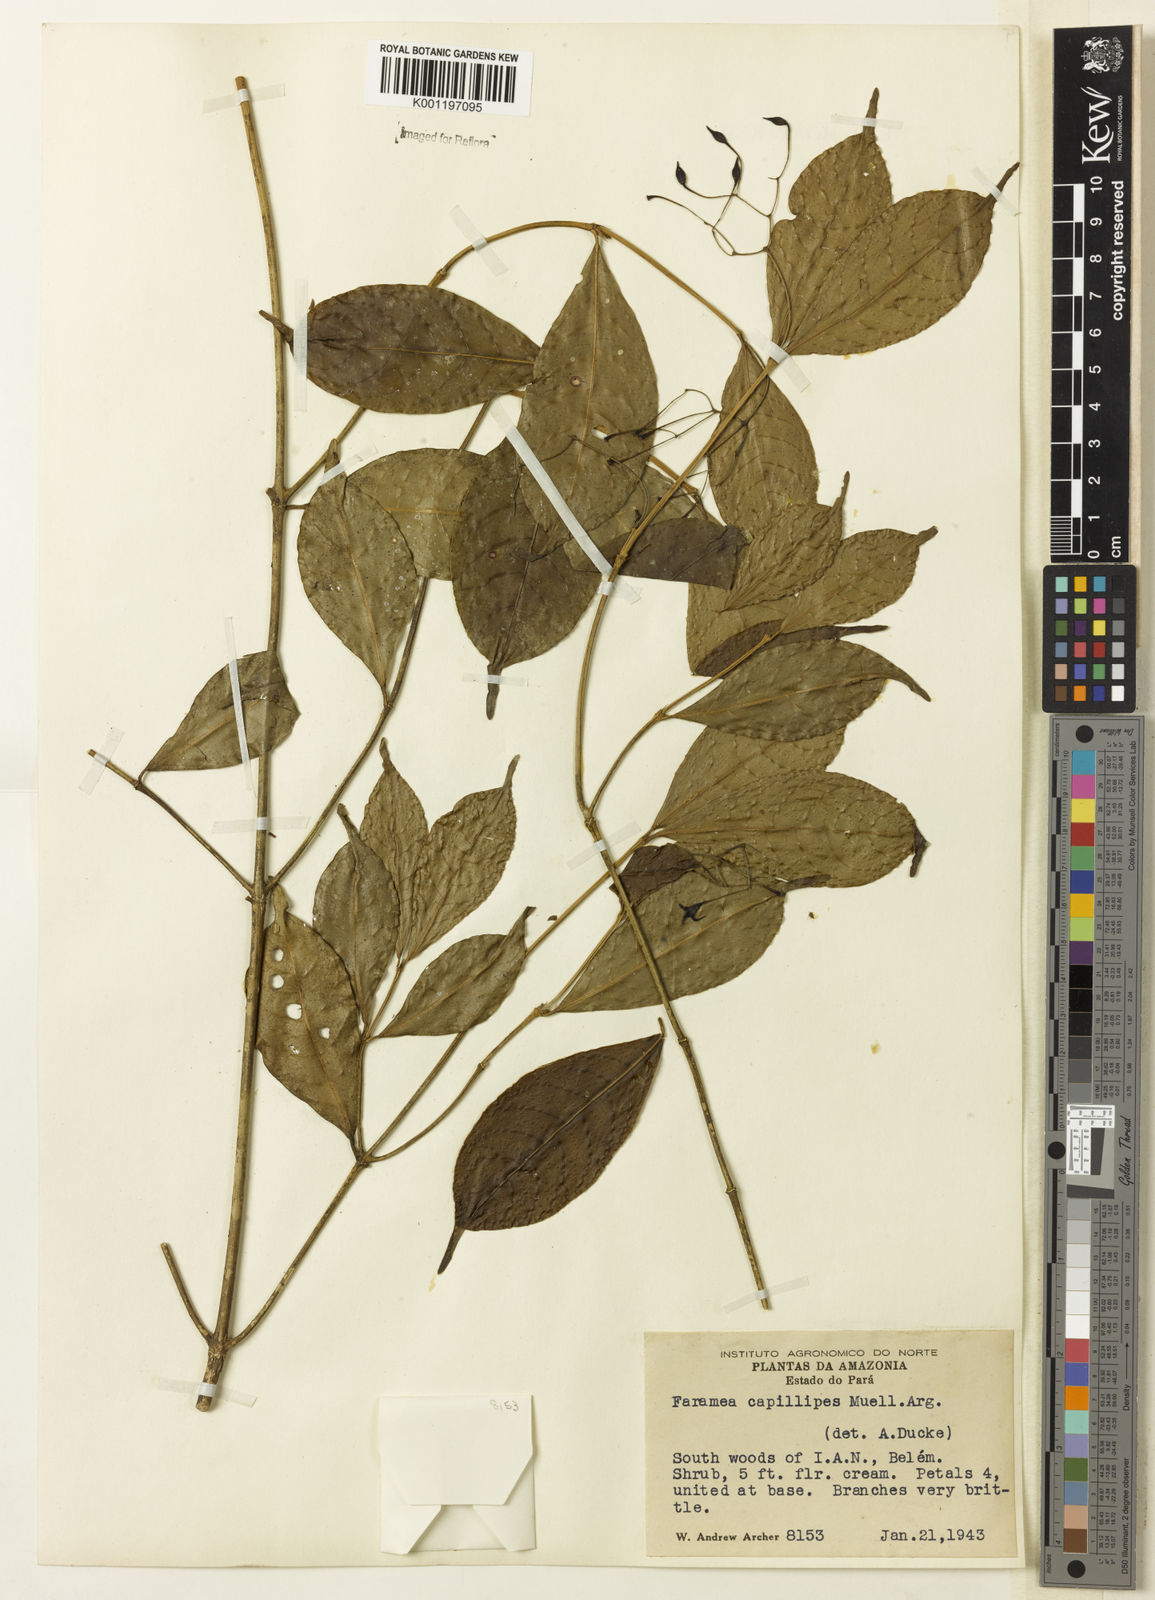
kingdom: Plantae
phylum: Tracheophyta
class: Magnoliopsida
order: Gentianales
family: Rubiaceae
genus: Faramea
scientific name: Faramea
